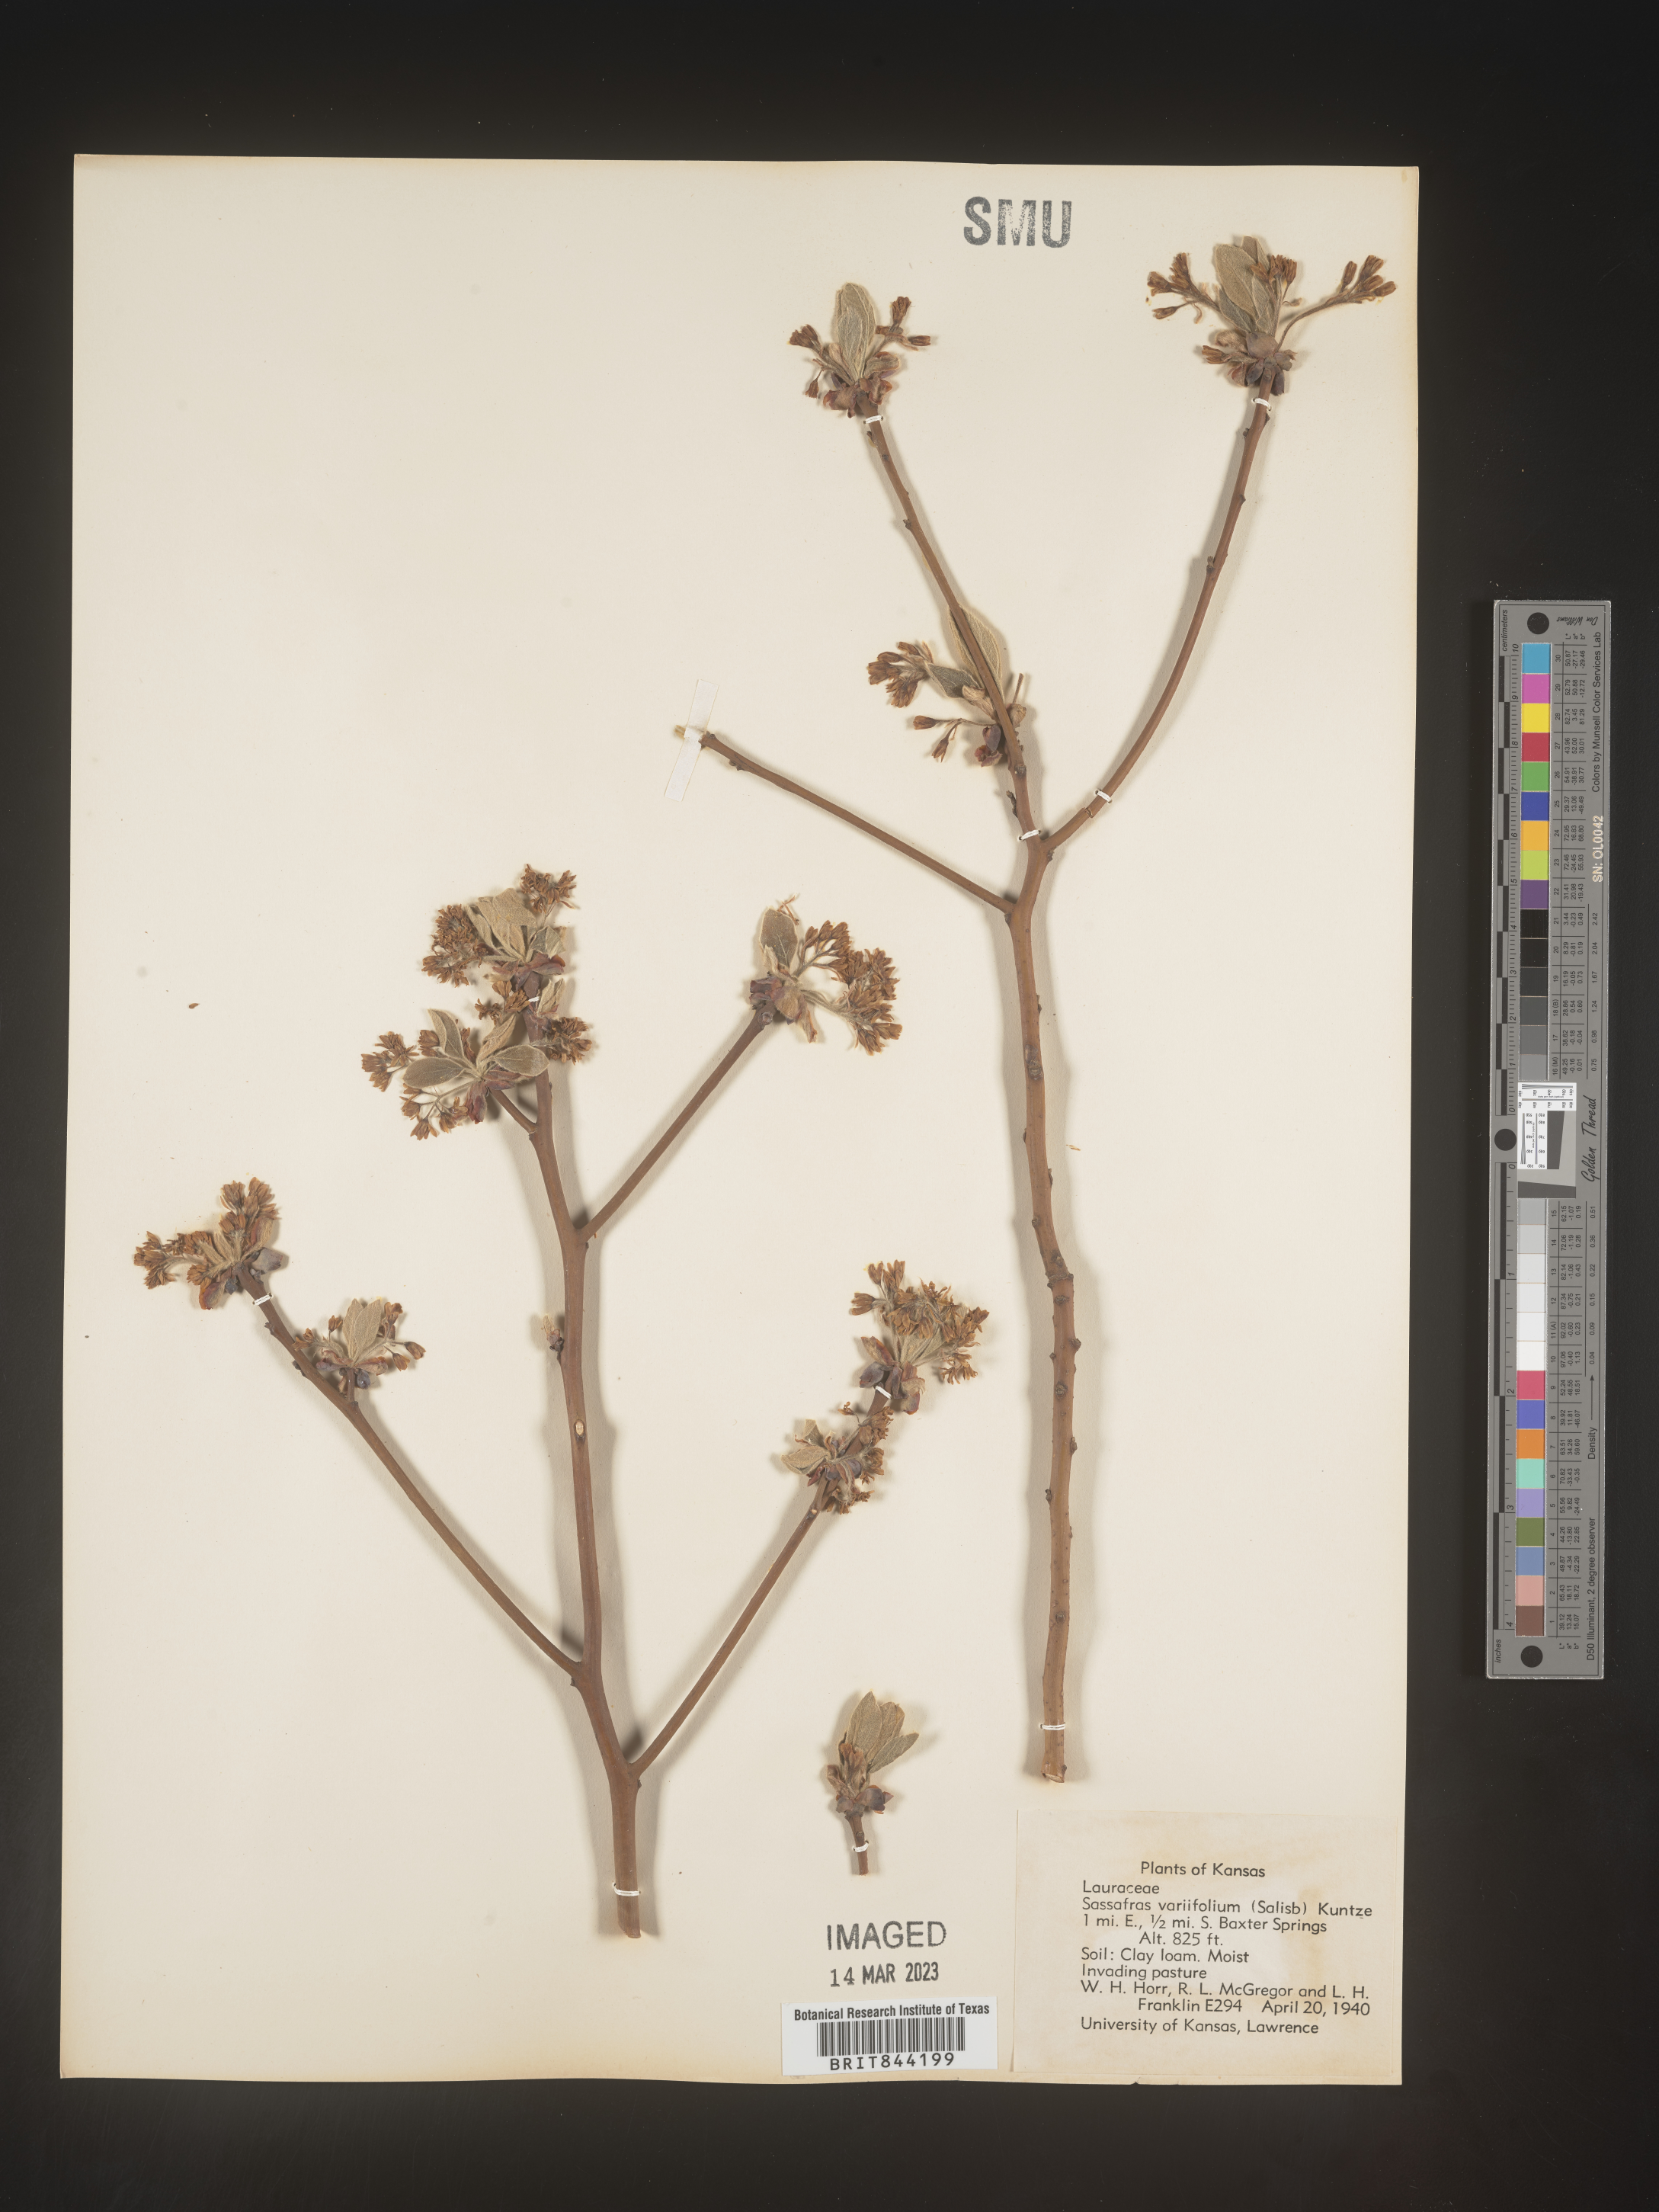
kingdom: Plantae
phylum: Tracheophyta
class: Magnoliopsida
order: Laurales
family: Lauraceae
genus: Sassafras
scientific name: Sassafras albidum
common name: Sassafras
